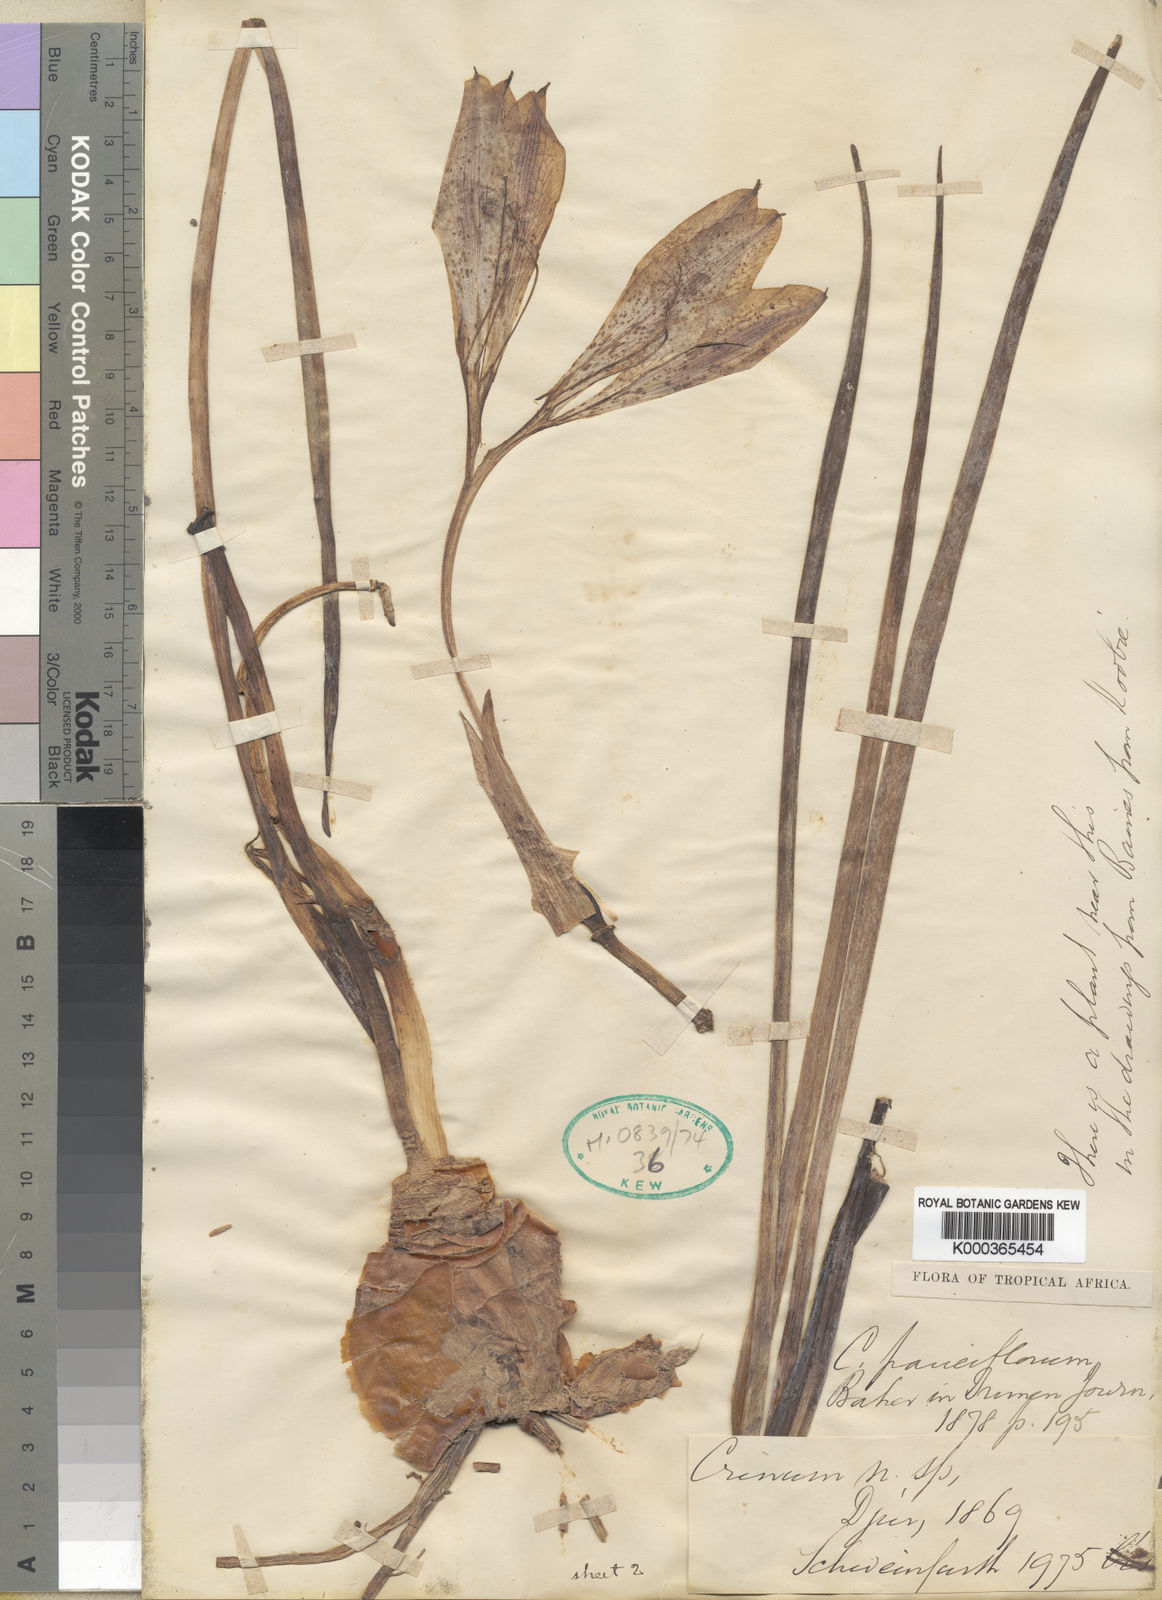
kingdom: Plantae
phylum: Tracheophyta
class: Liliopsida
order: Asparagales
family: Amaryllidaceae
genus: Crinum
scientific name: Crinum biflorum
